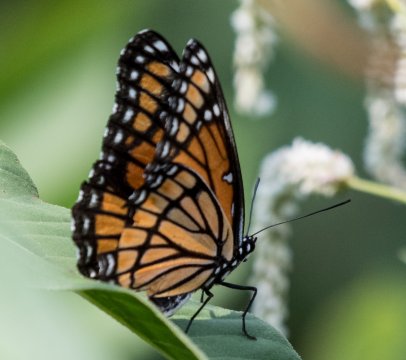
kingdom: Animalia
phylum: Arthropoda
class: Insecta
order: Lepidoptera
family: Nymphalidae
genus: Limenitis
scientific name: Limenitis archippus
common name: Viceroy
